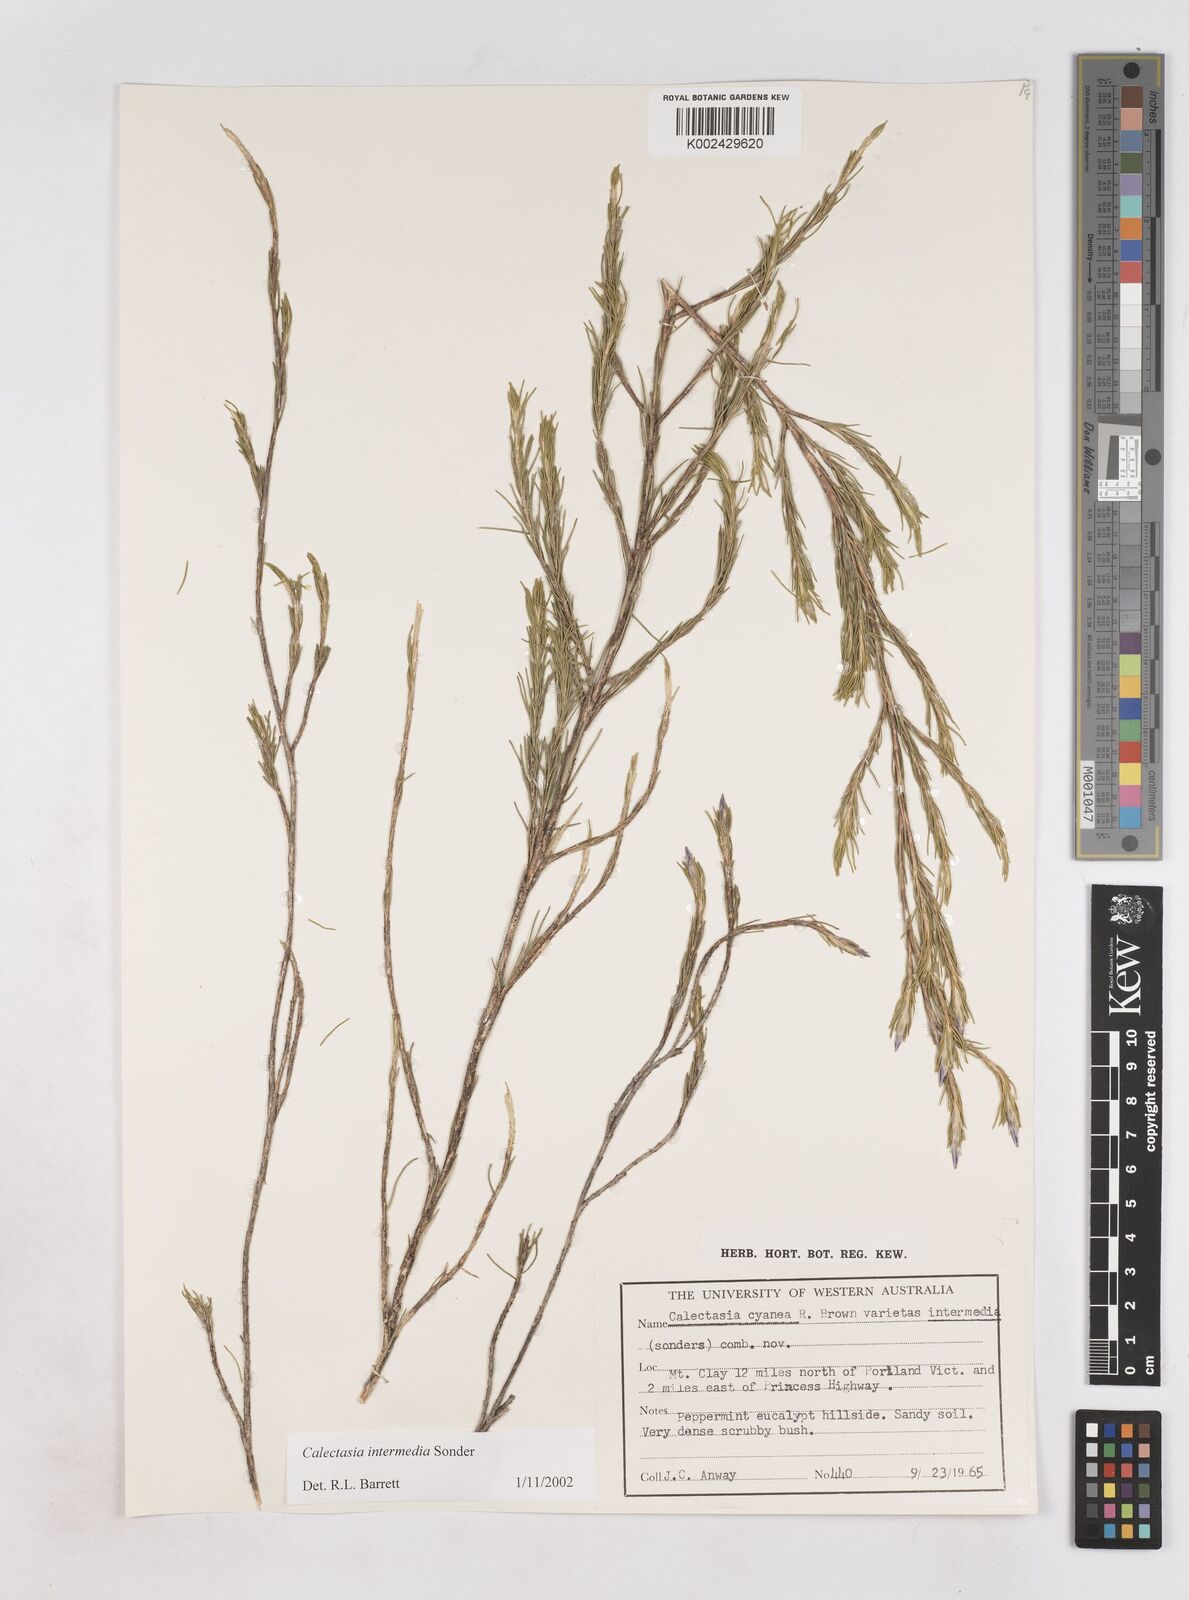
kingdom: Plantae
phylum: Tracheophyta
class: Liliopsida
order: Arecales
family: Dasypogonaceae
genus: Calectasia
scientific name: Calectasia intermedia
